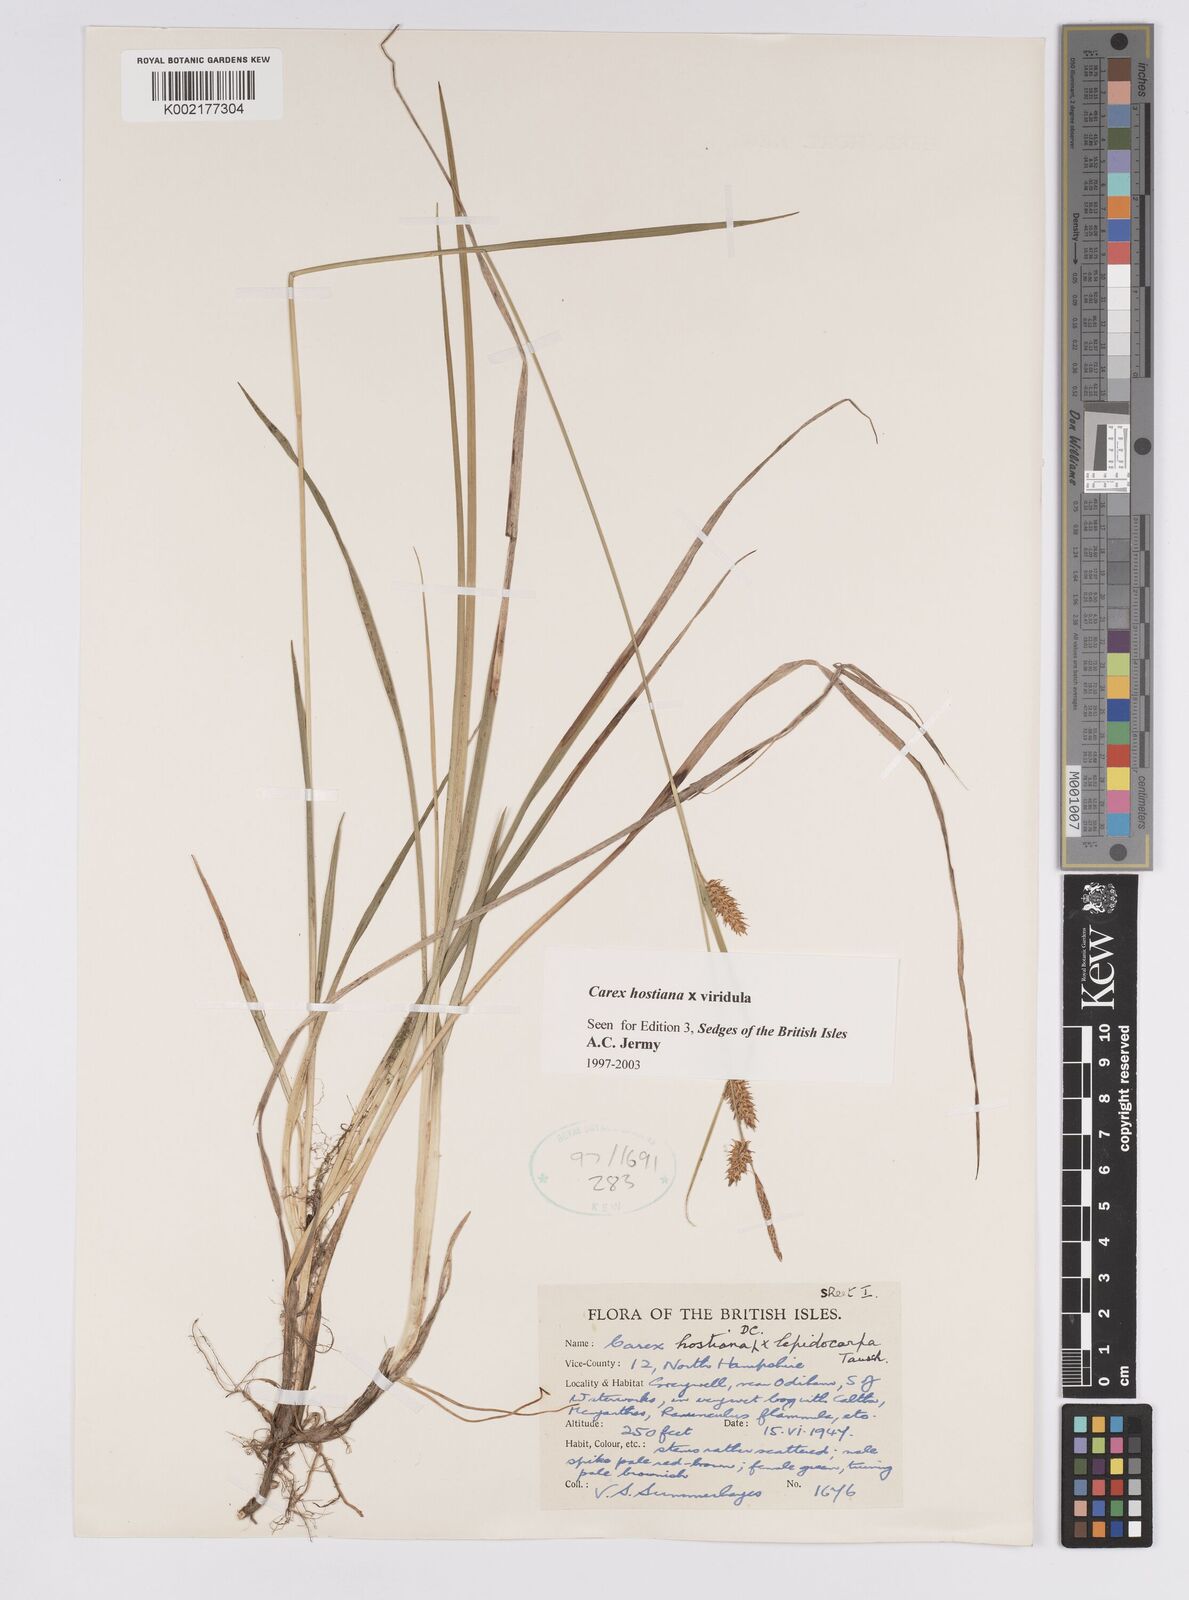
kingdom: Plantae
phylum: Tracheophyta
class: Liliopsida
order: Poales
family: Cyperaceae
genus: Carex
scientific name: Carex hostiana
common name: Tawny sedge
